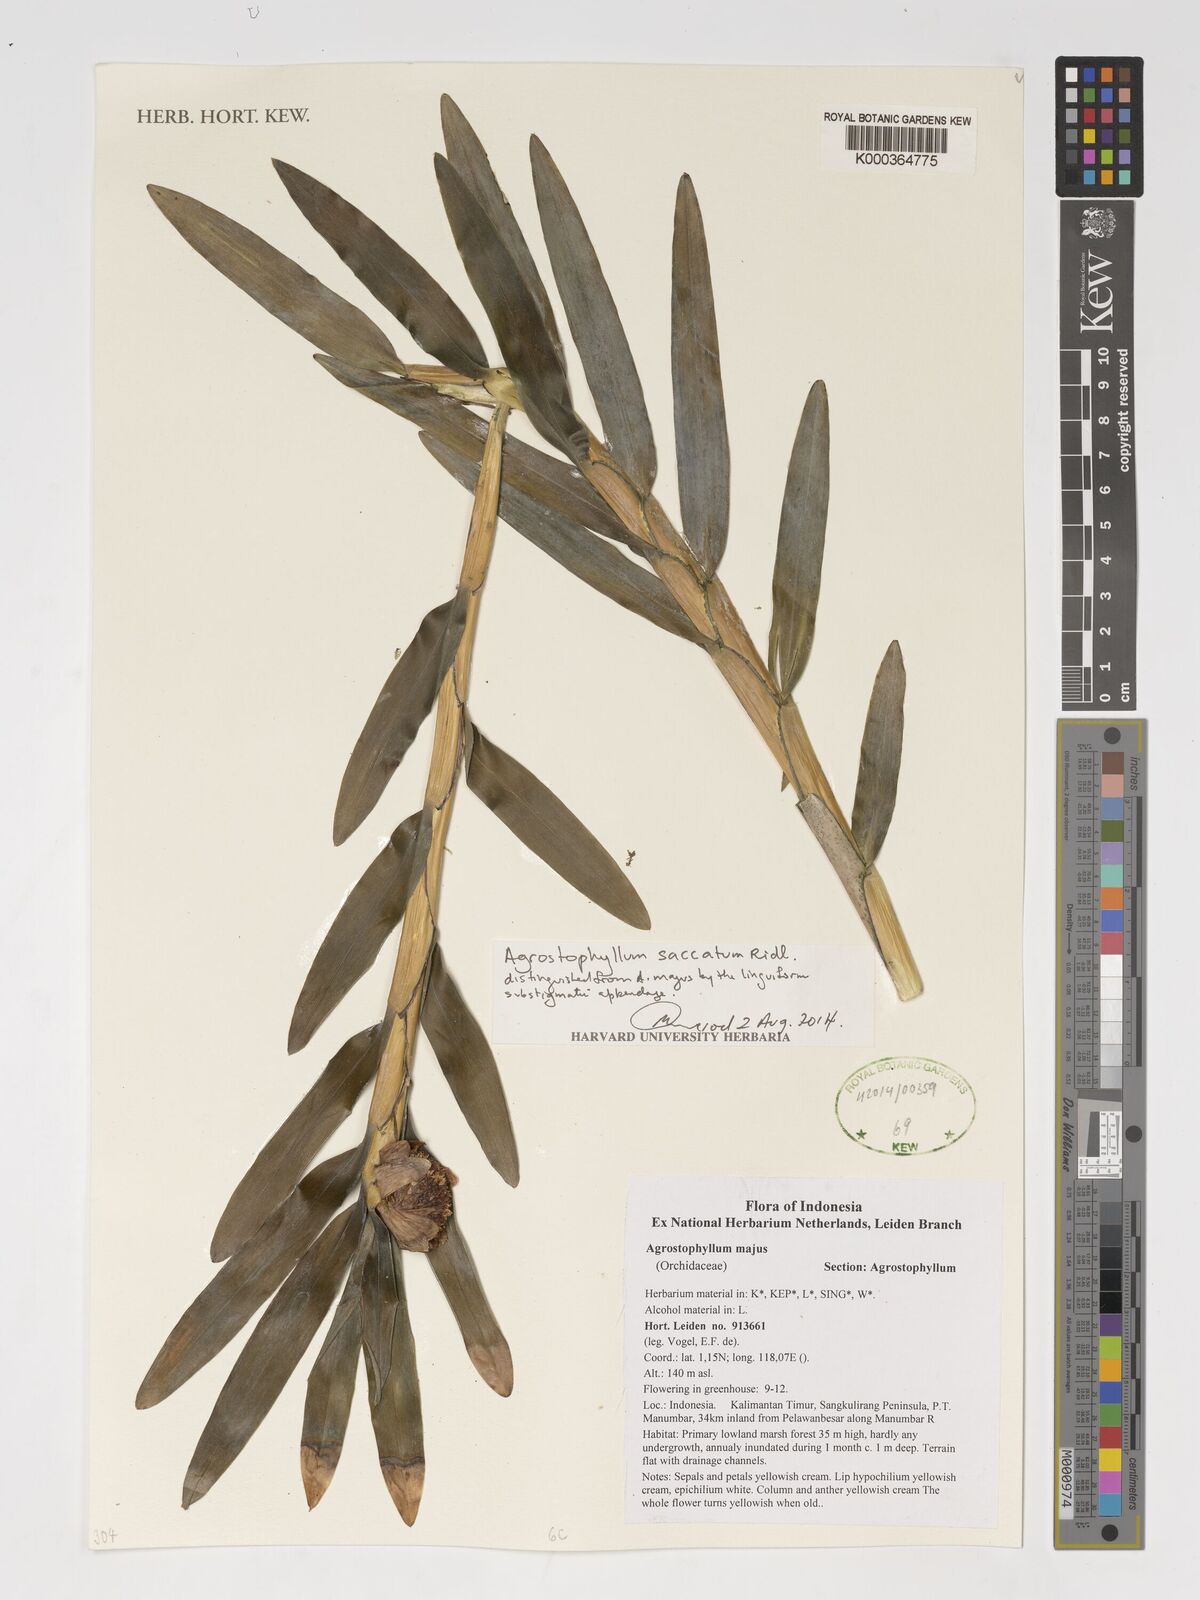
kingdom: Plantae
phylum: Tracheophyta
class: Liliopsida
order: Asparagales
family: Orchidaceae
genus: Agrostophyllum
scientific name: Agrostophyllum majus
